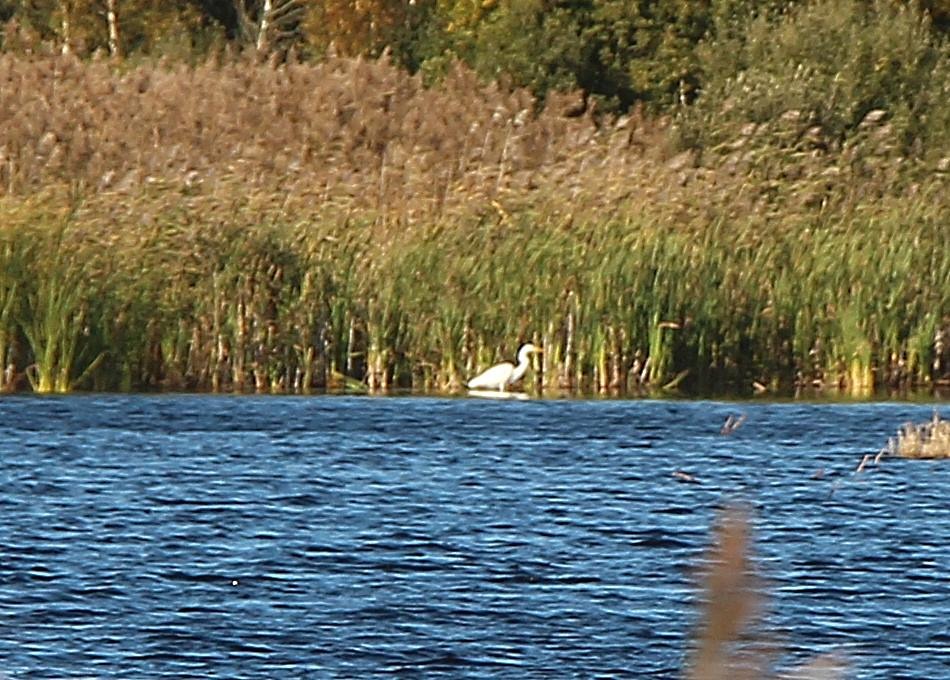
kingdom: Animalia
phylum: Chordata
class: Aves
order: Pelecaniformes
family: Ardeidae
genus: Ardea
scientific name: Ardea alba
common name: Sølvhejre
